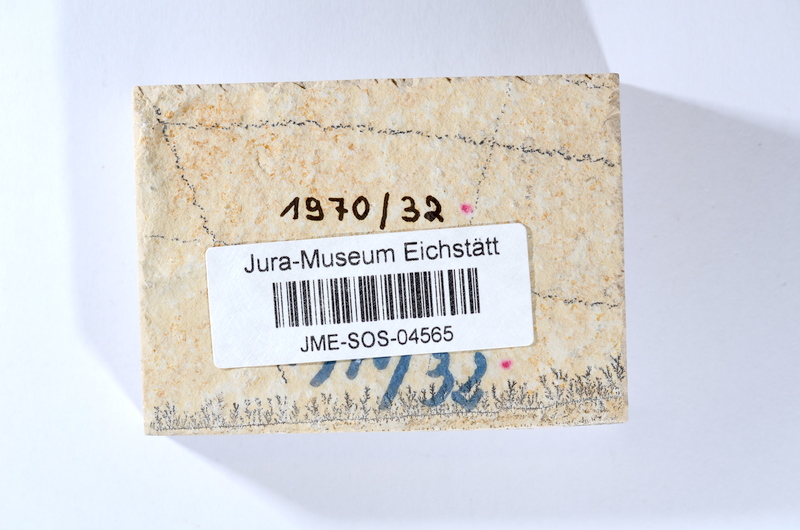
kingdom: Animalia
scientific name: Animalia
